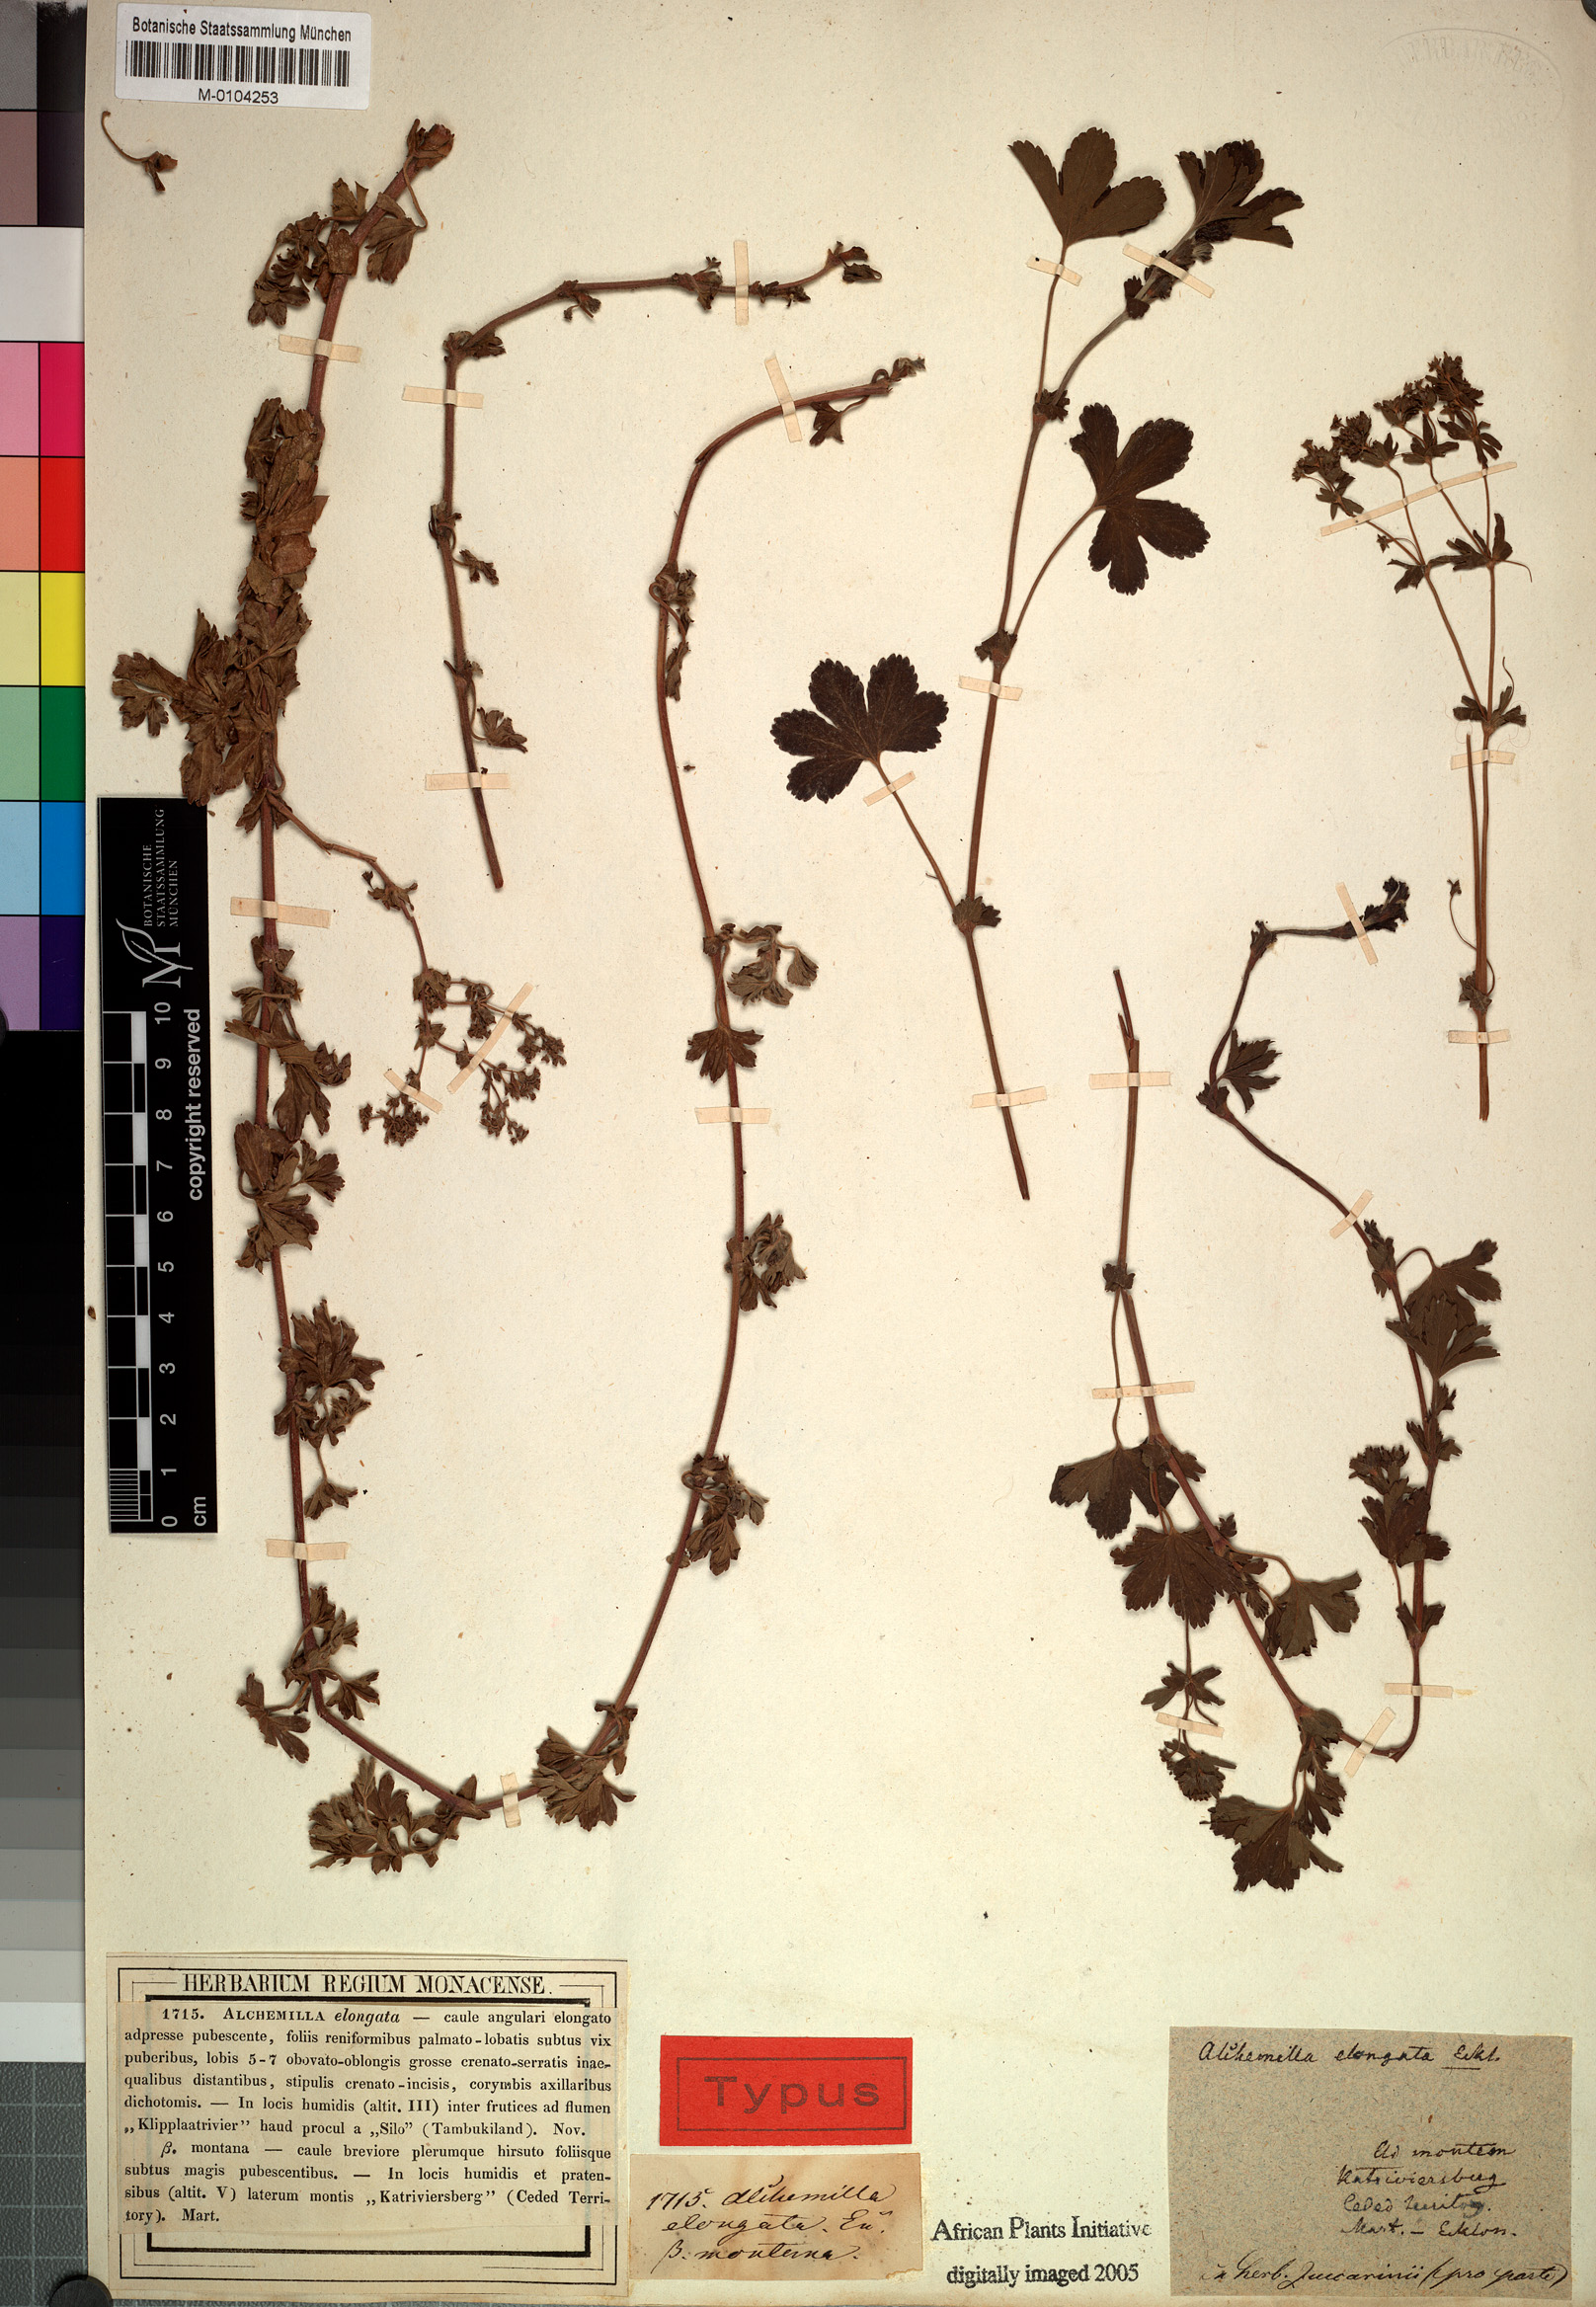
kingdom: Plantae
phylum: Tracheophyta
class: Magnoliopsida
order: Rosales
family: Rosaceae
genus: Alchemilla
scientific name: Alchemilla elongata
